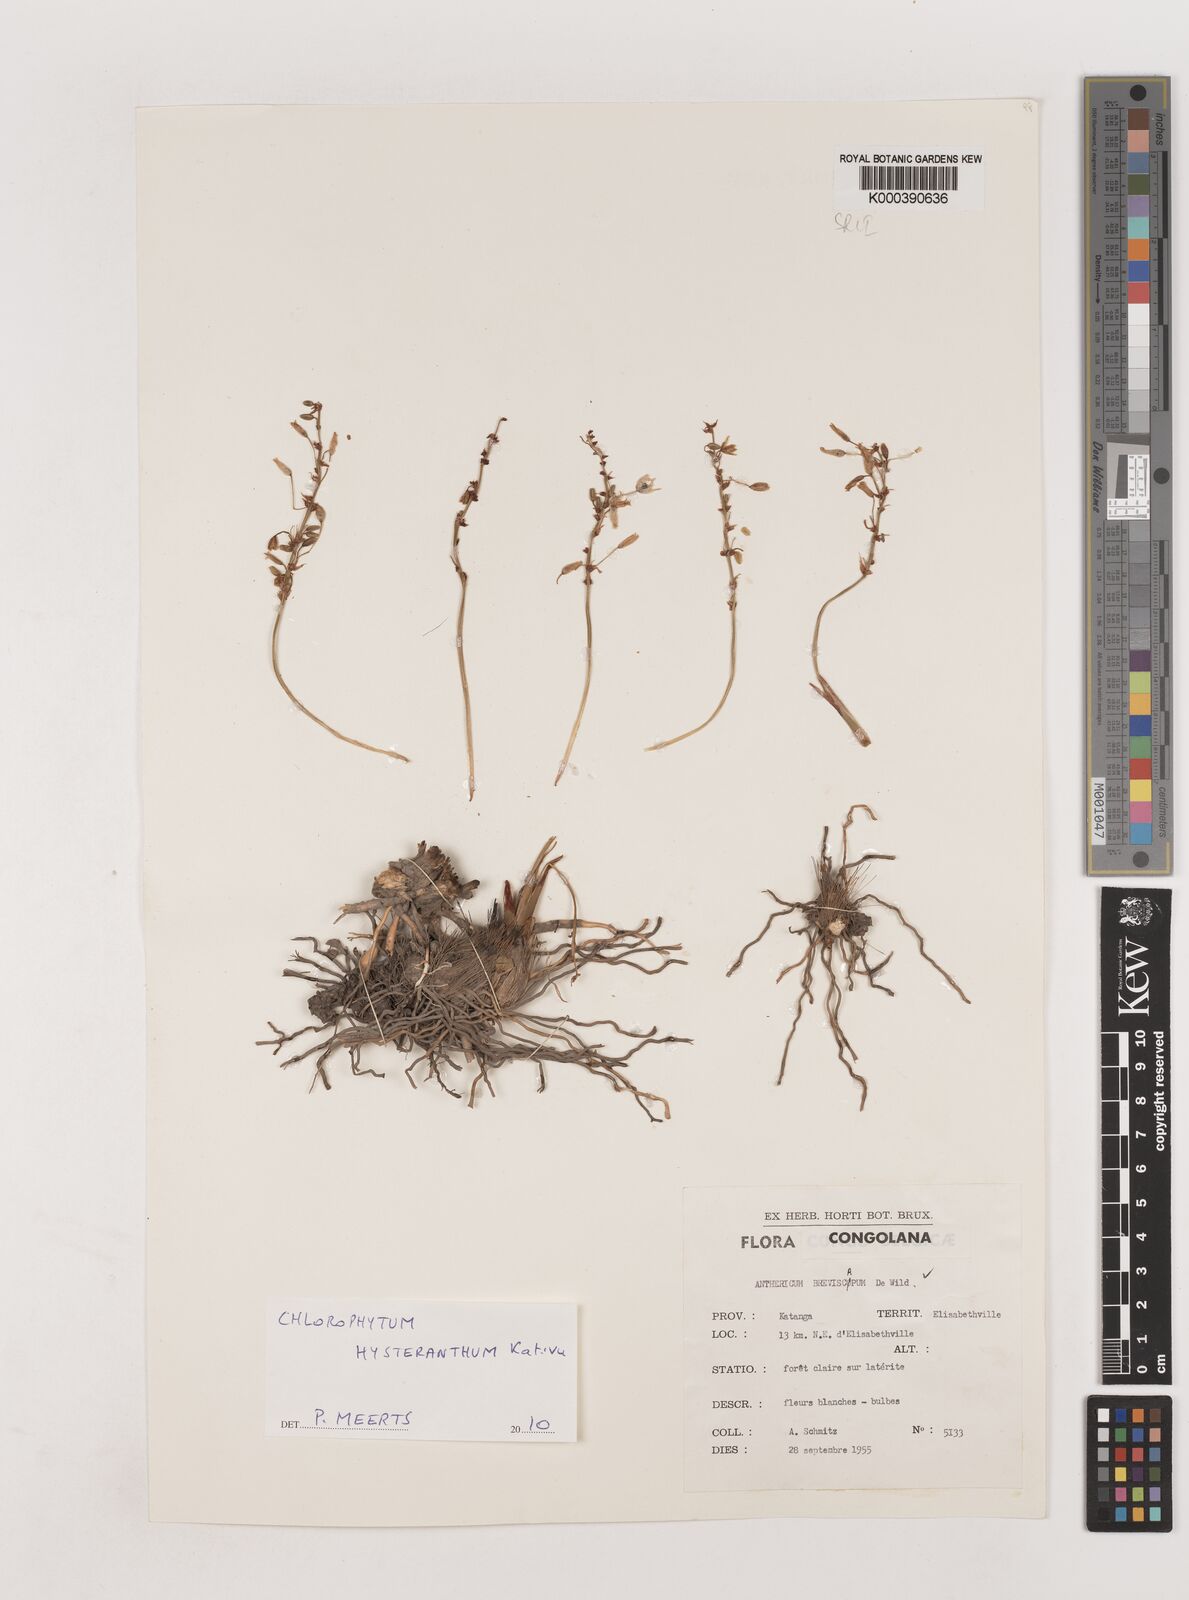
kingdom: Plantae
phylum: Tracheophyta
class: Liliopsida
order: Asparagales
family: Asparagaceae
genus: Chlorophytum
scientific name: Chlorophytum hysteranthum
